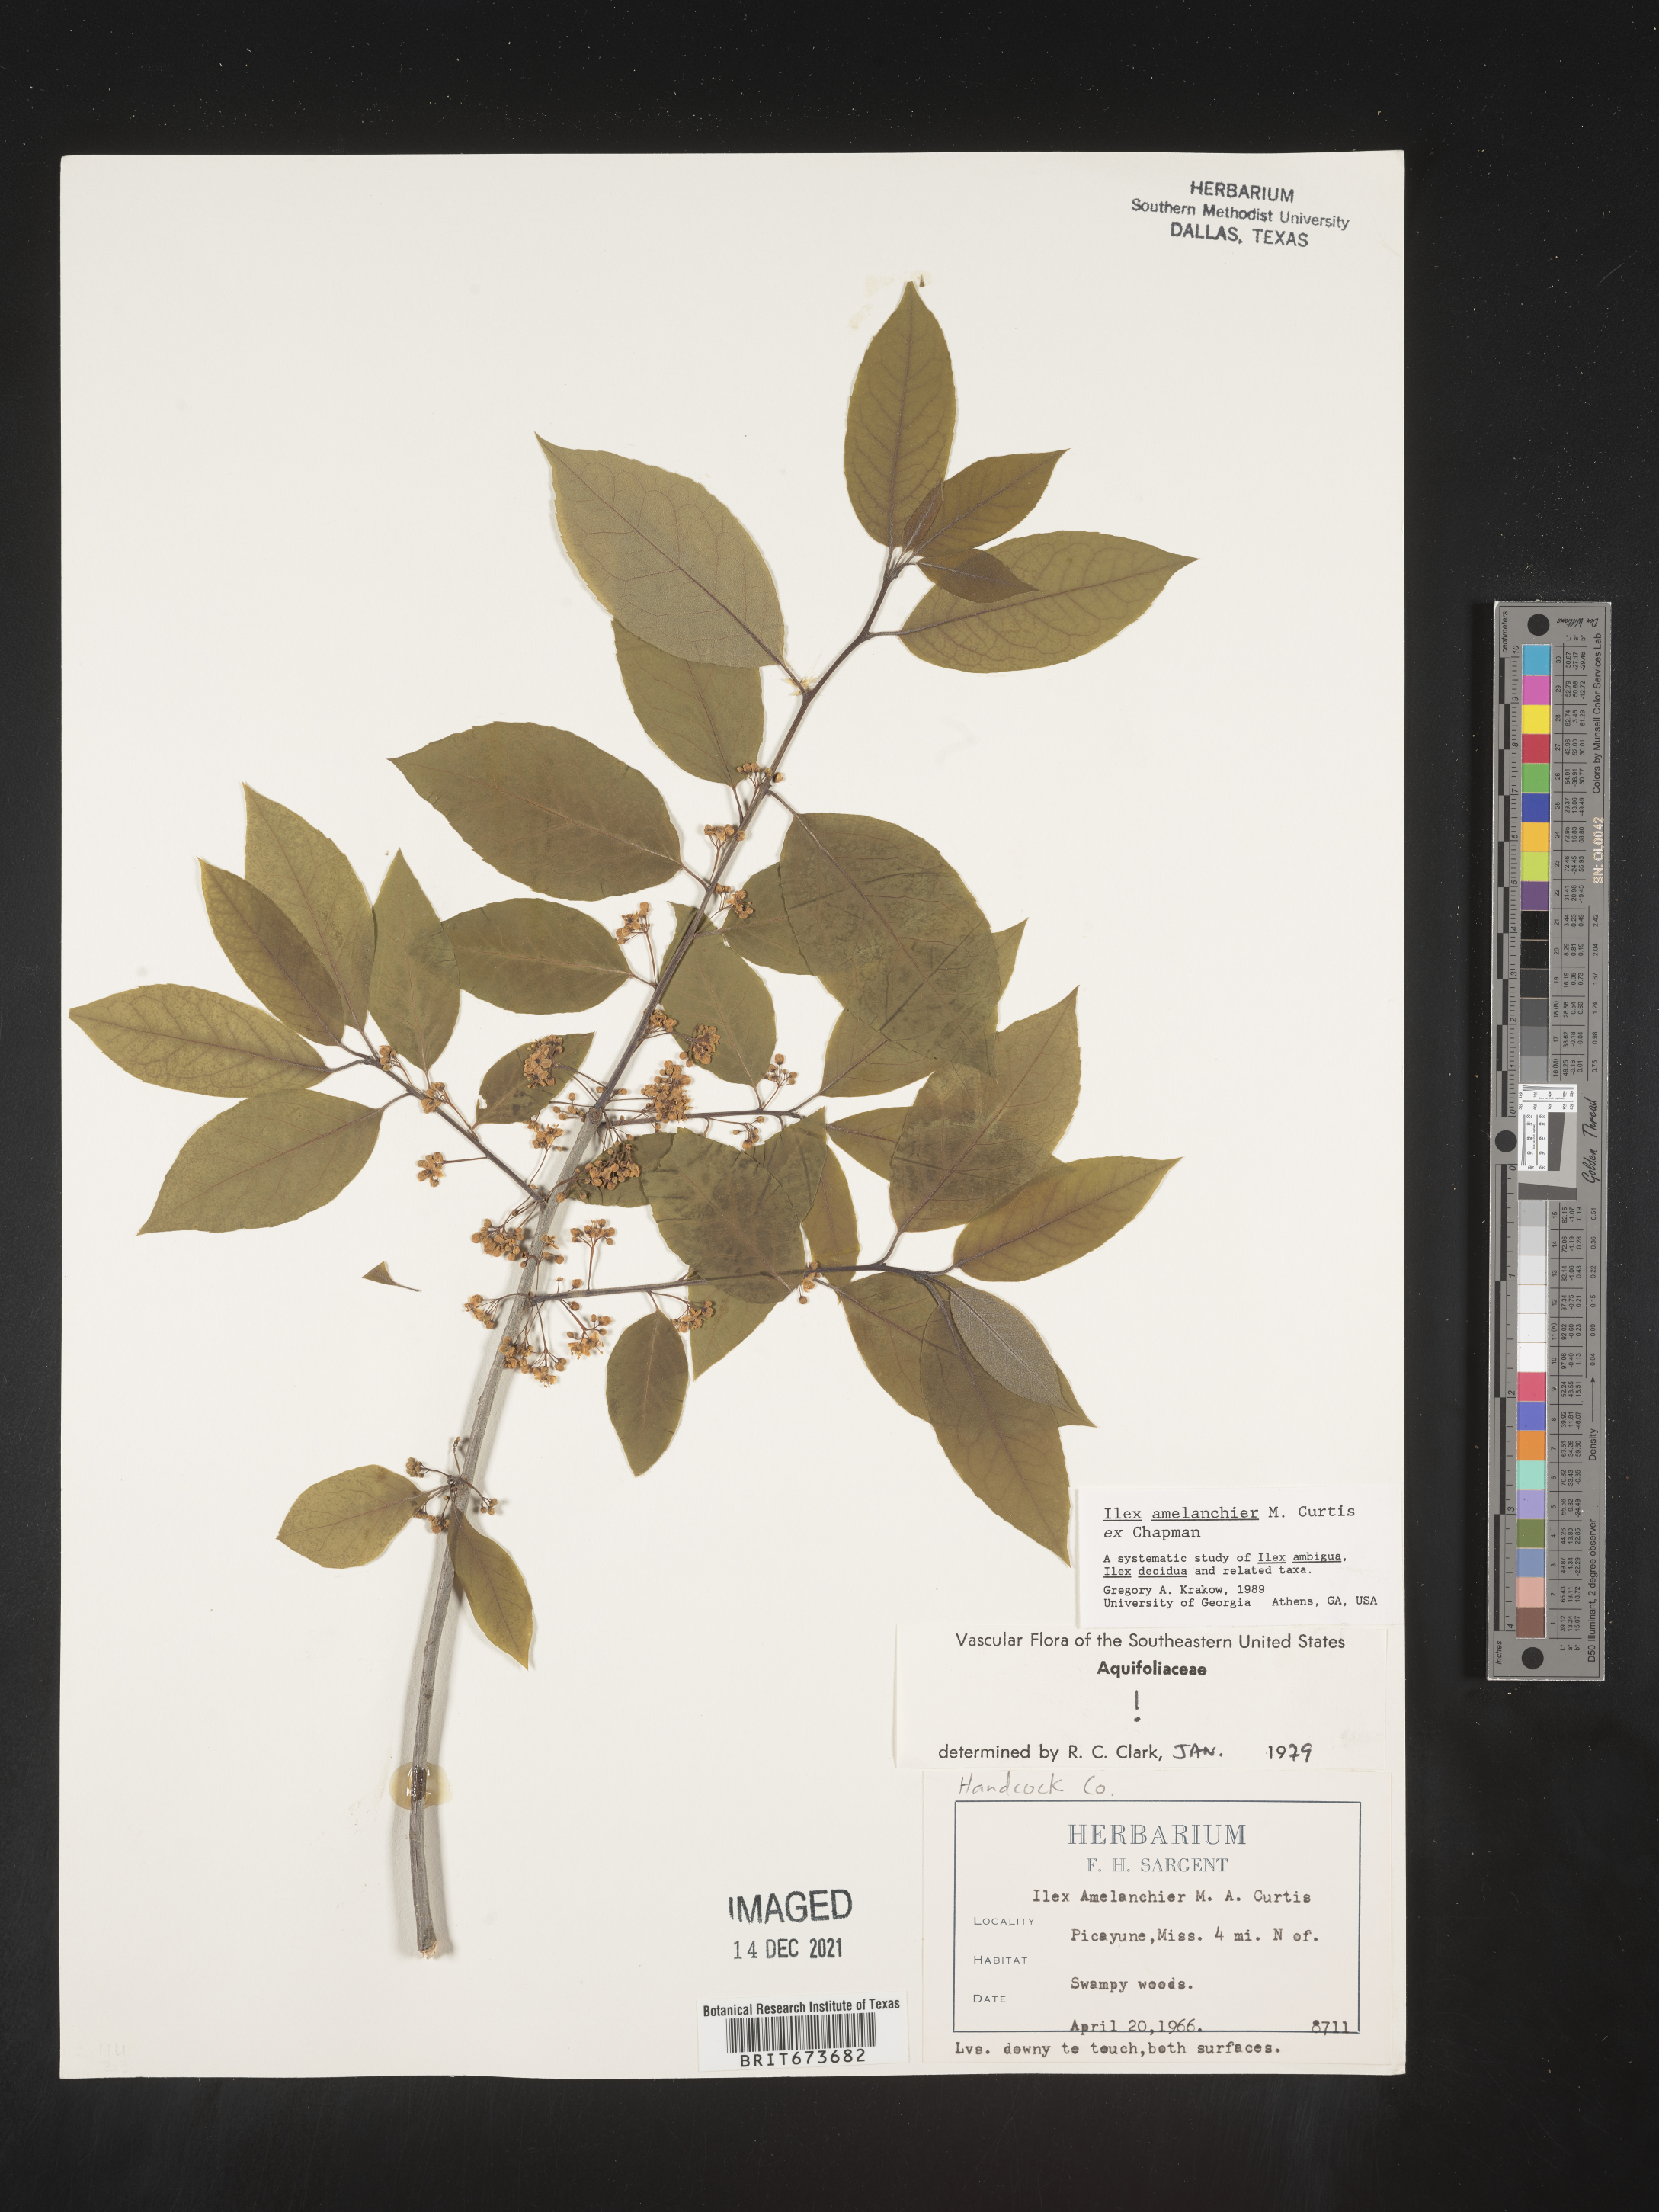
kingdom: Plantae
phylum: Tracheophyta
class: Magnoliopsida
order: Aquifoliales
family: Aquifoliaceae
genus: Ilex
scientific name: Ilex amelanchier
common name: Sarvis holly
